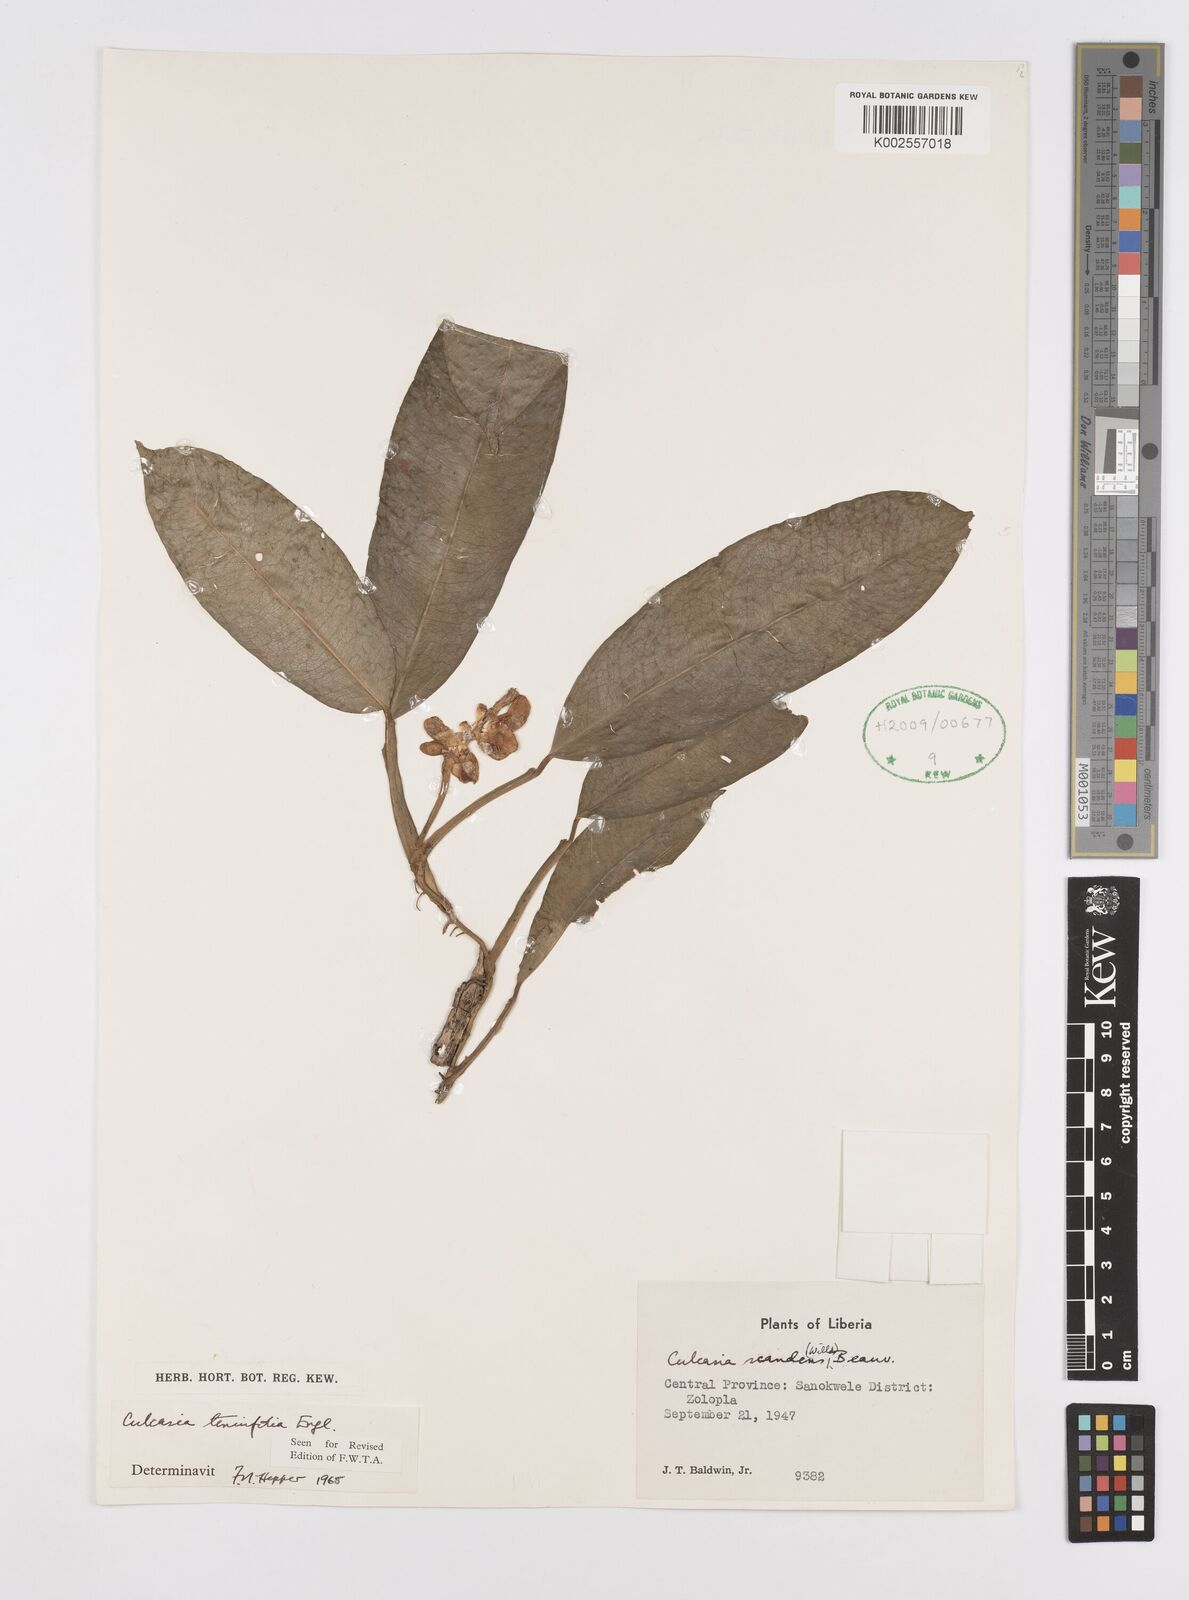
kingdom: Plantae
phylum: Tracheophyta
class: Liliopsida
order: Alismatales
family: Araceae
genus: Culcasia
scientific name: Culcasia tenuifolia
